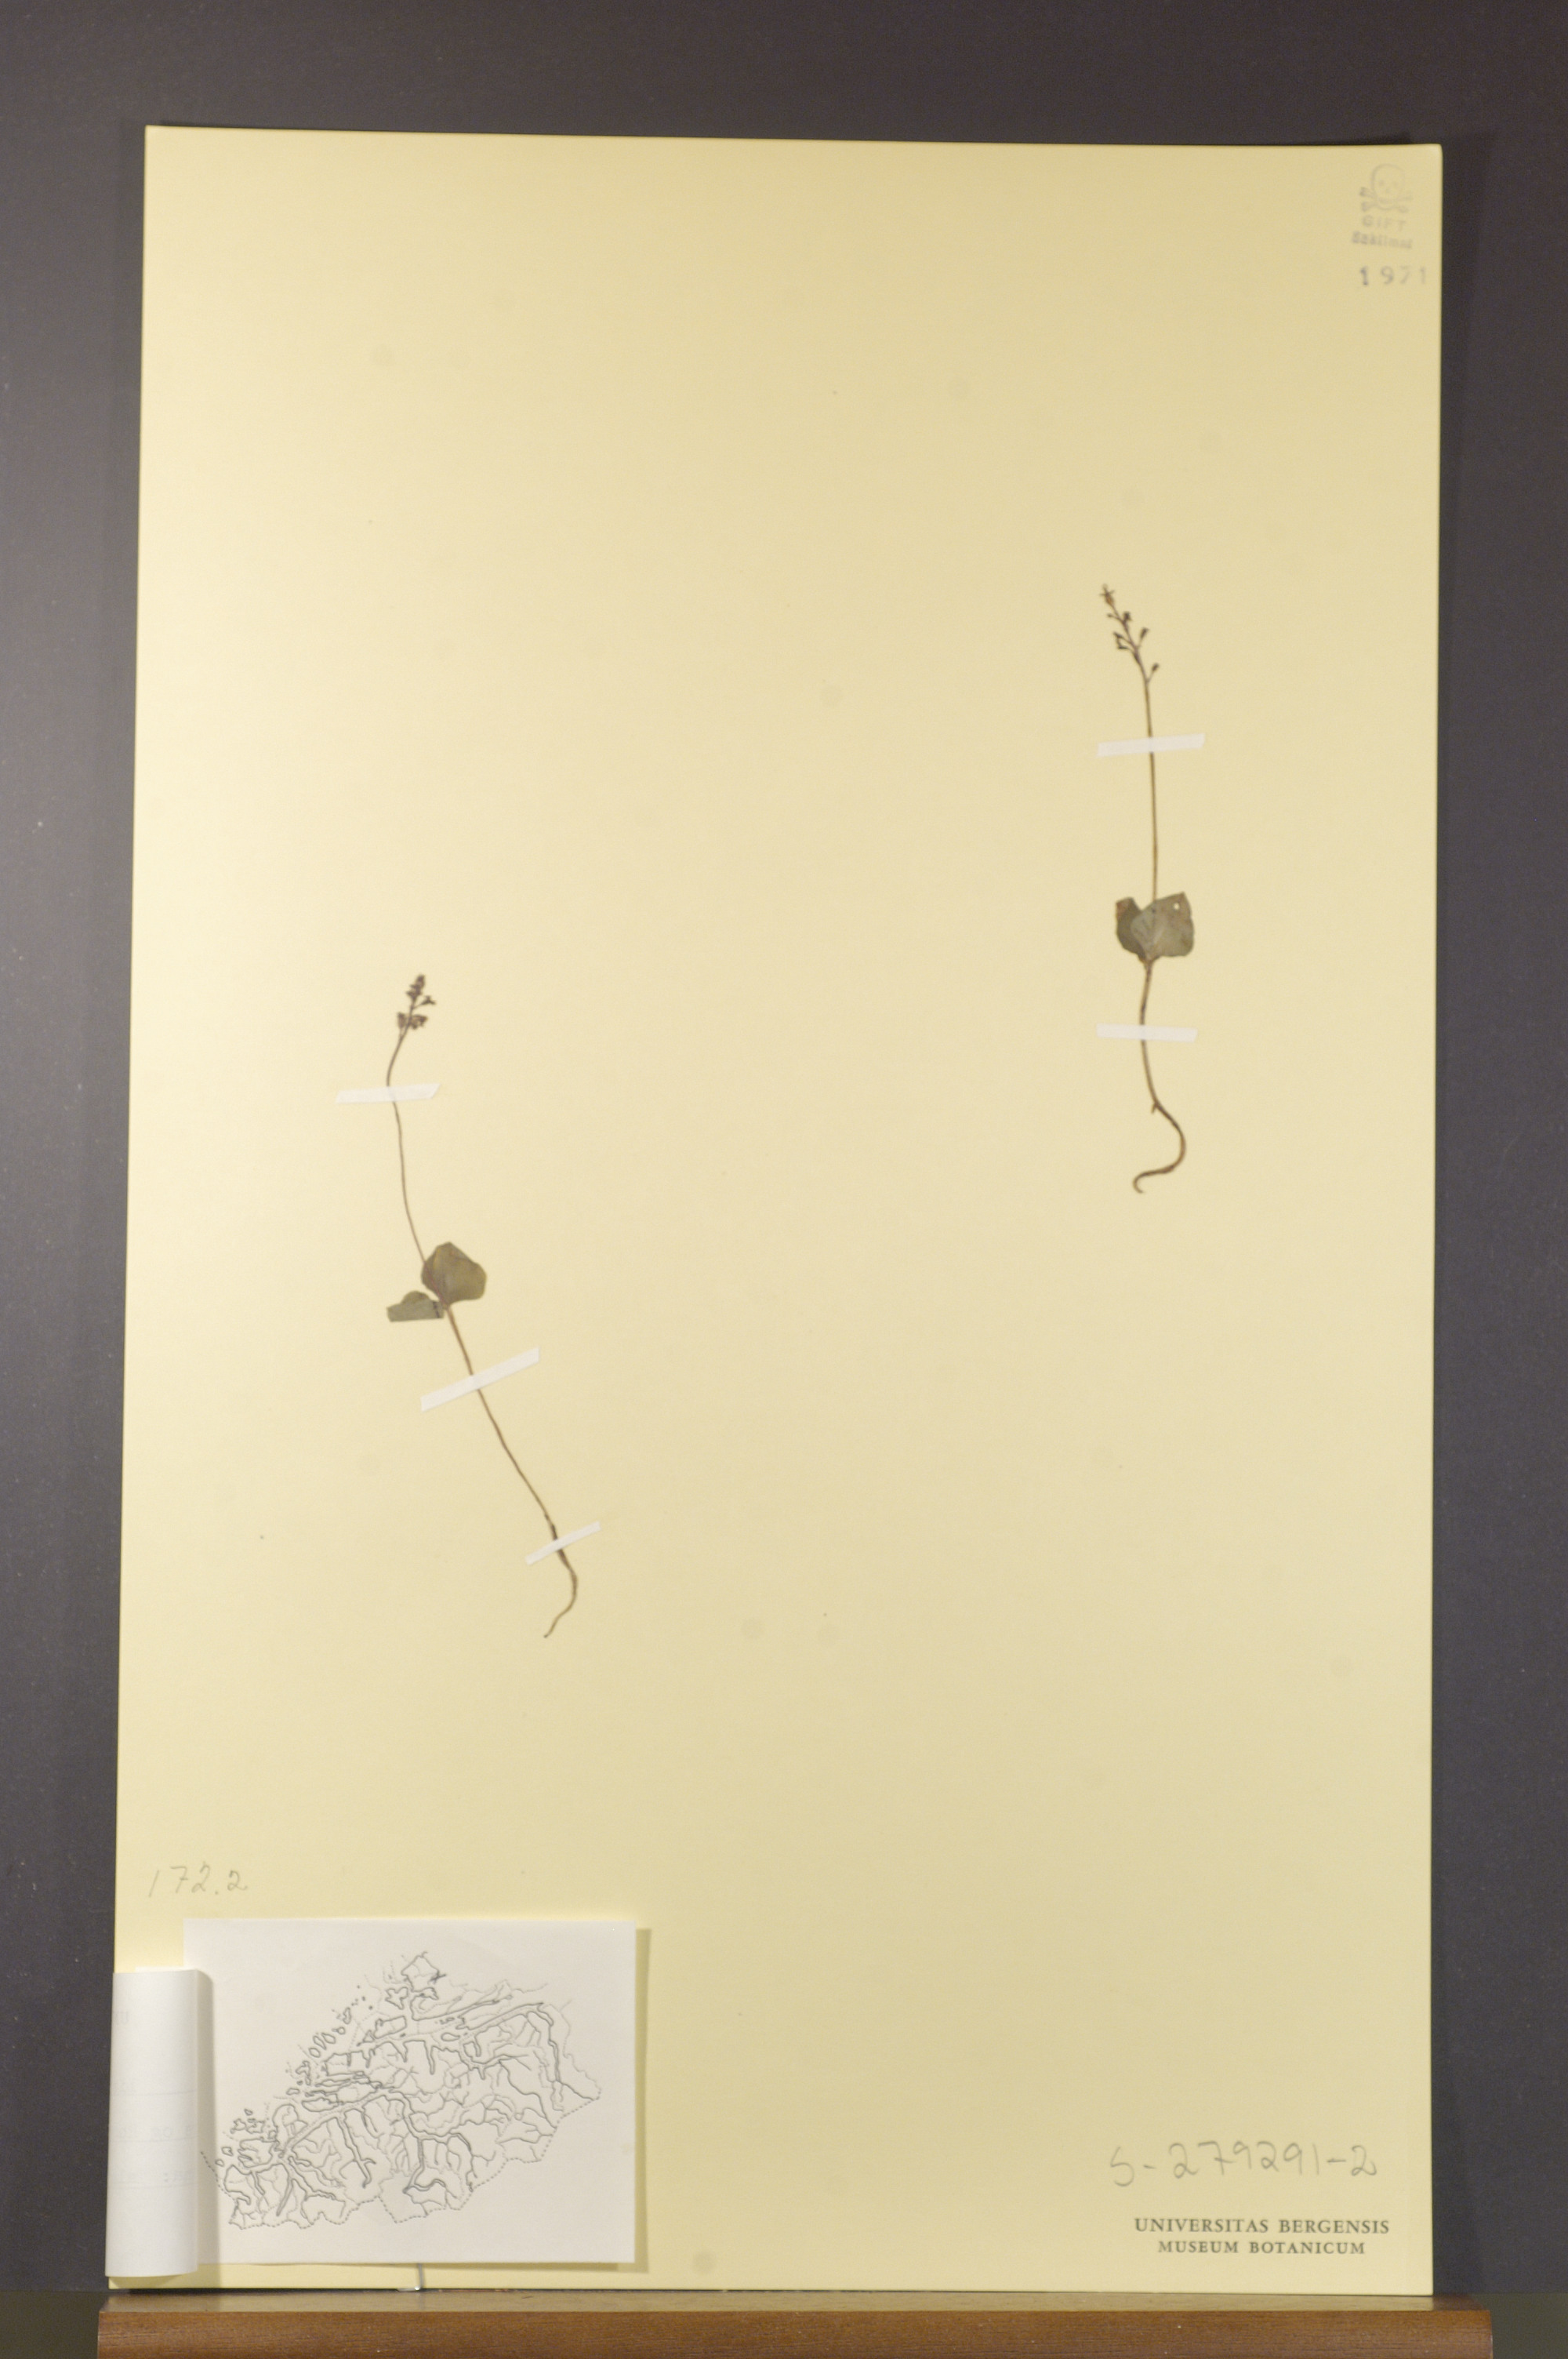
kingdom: Plantae
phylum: Tracheophyta
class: Liliopsida
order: Asparagales
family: Orchidaceae
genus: Neottia
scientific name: Neottia cordata
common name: Lesser twayblade
